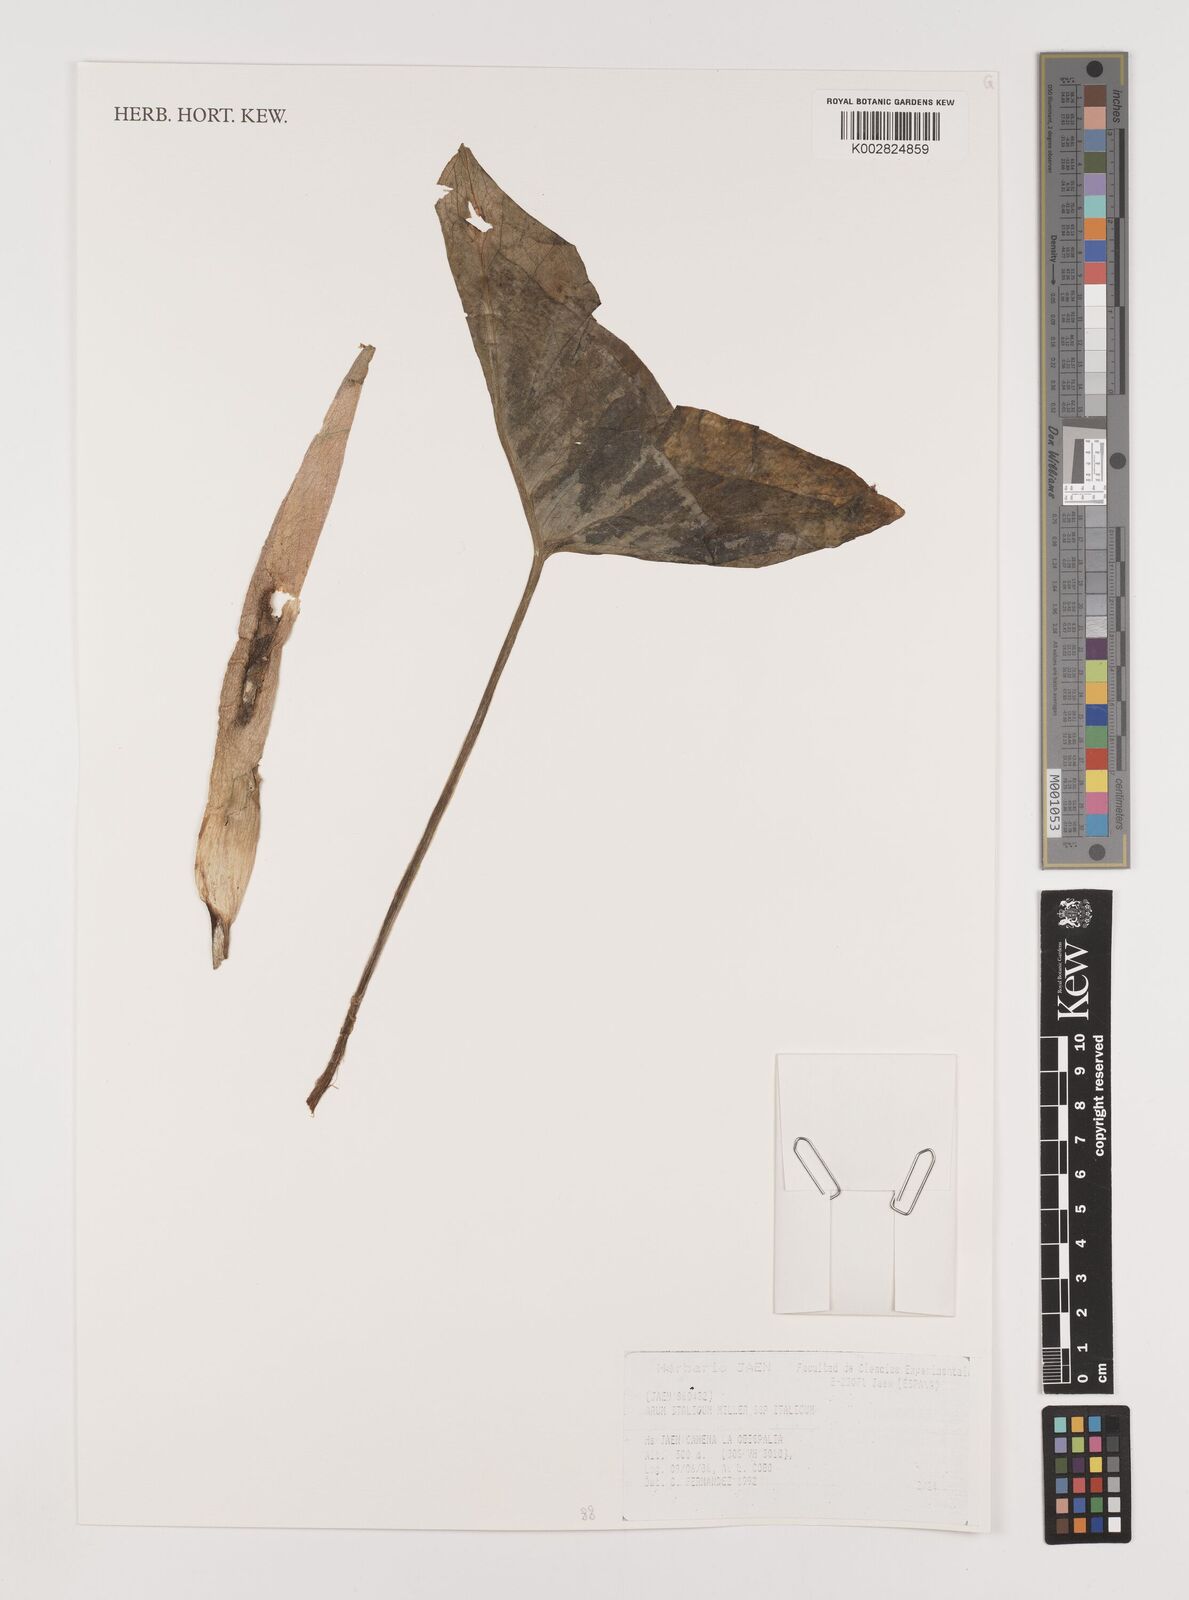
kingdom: Plantae
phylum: Tracheophyta
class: Liliopsida
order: Alismatales
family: Araceae
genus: Arum
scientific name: Arum italicum
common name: Italian lords-and-ladies
